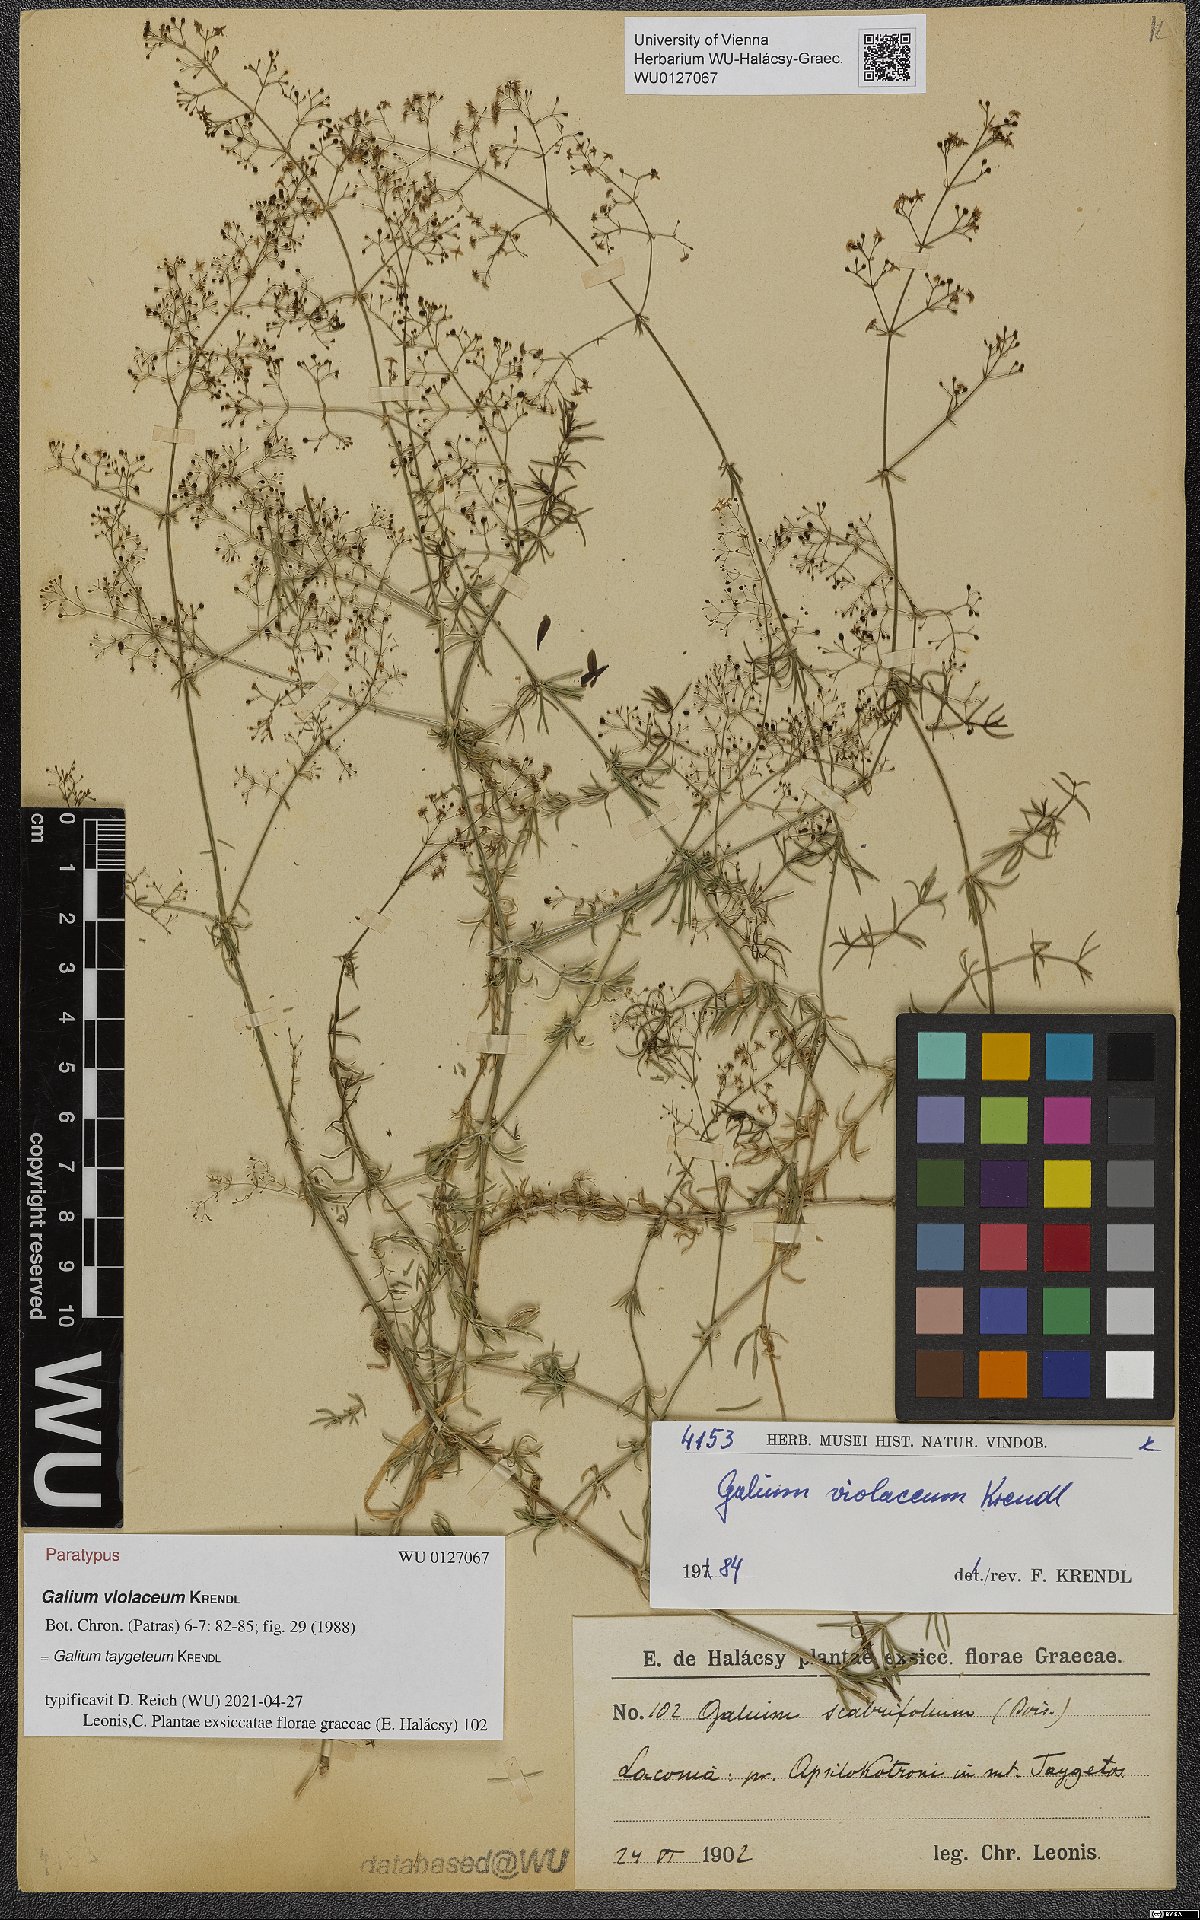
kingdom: Plantae
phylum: Tracheophyta
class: Magnoliopsida
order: Gentianales
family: Rubiaceae
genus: Galium
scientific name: Galium taygeteum
